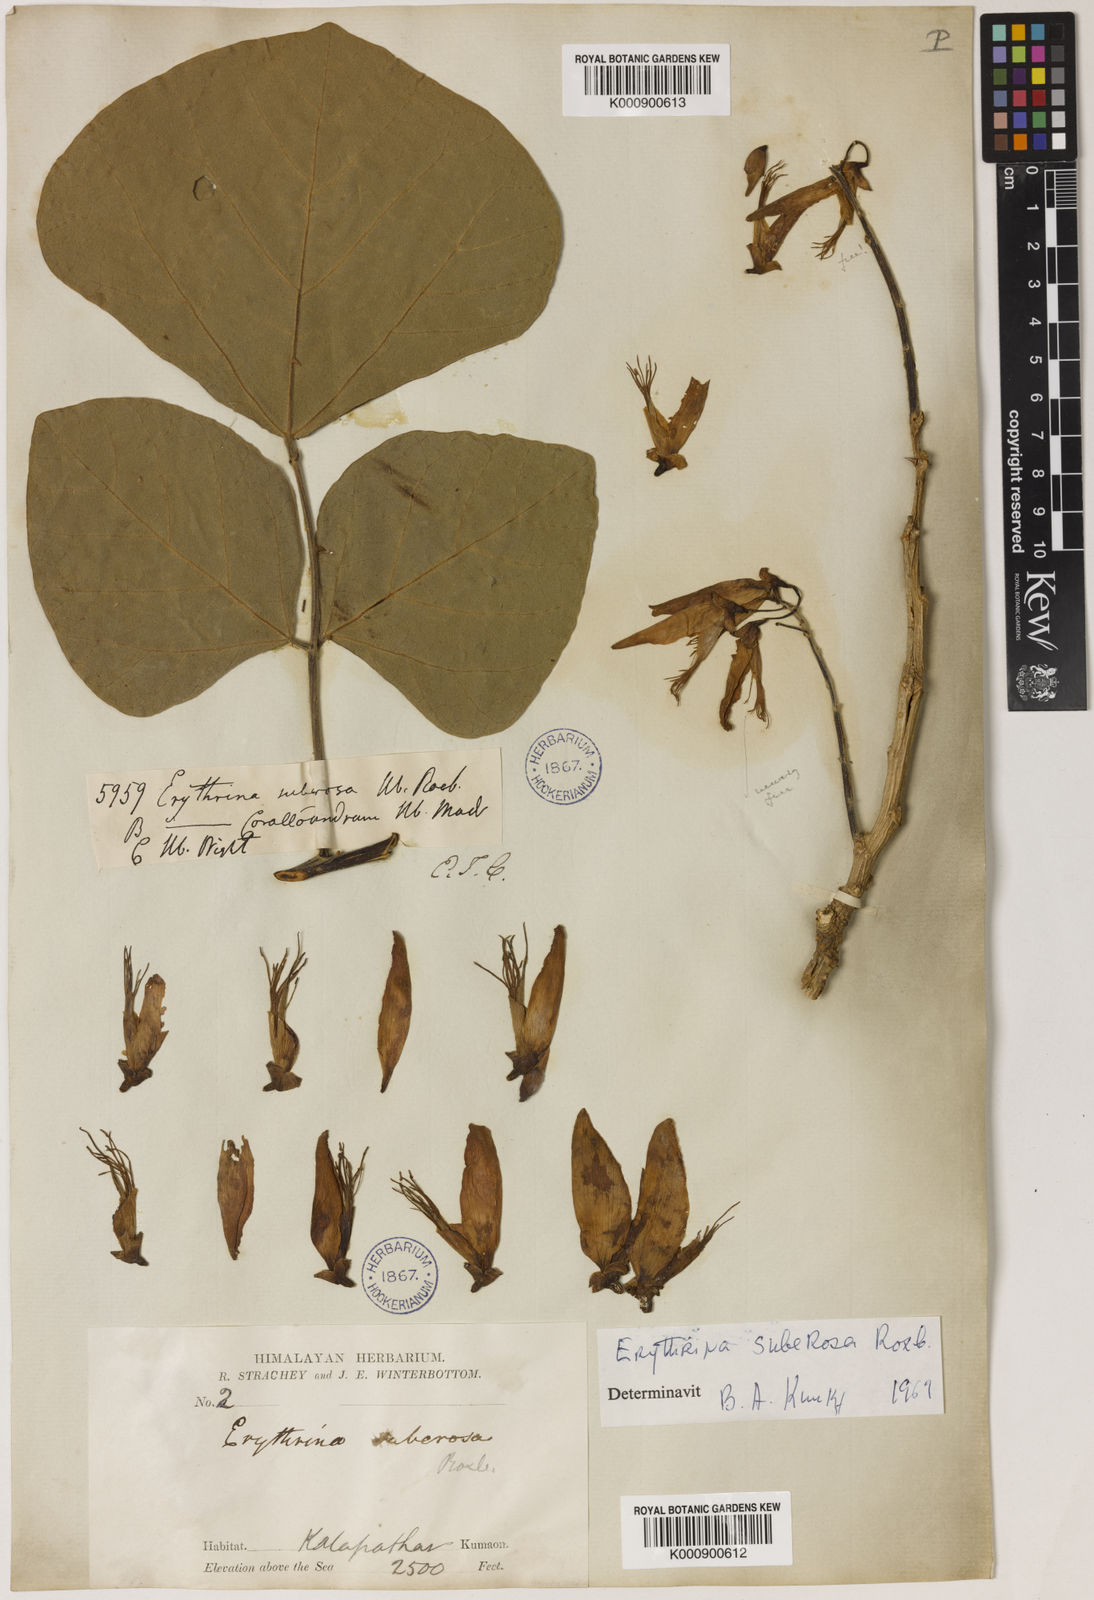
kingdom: Plantae
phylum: Tracheophyta
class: Magnoliopsida
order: Fabales
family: Fabaceae
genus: Erythrina
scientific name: Erythrina suberosa
